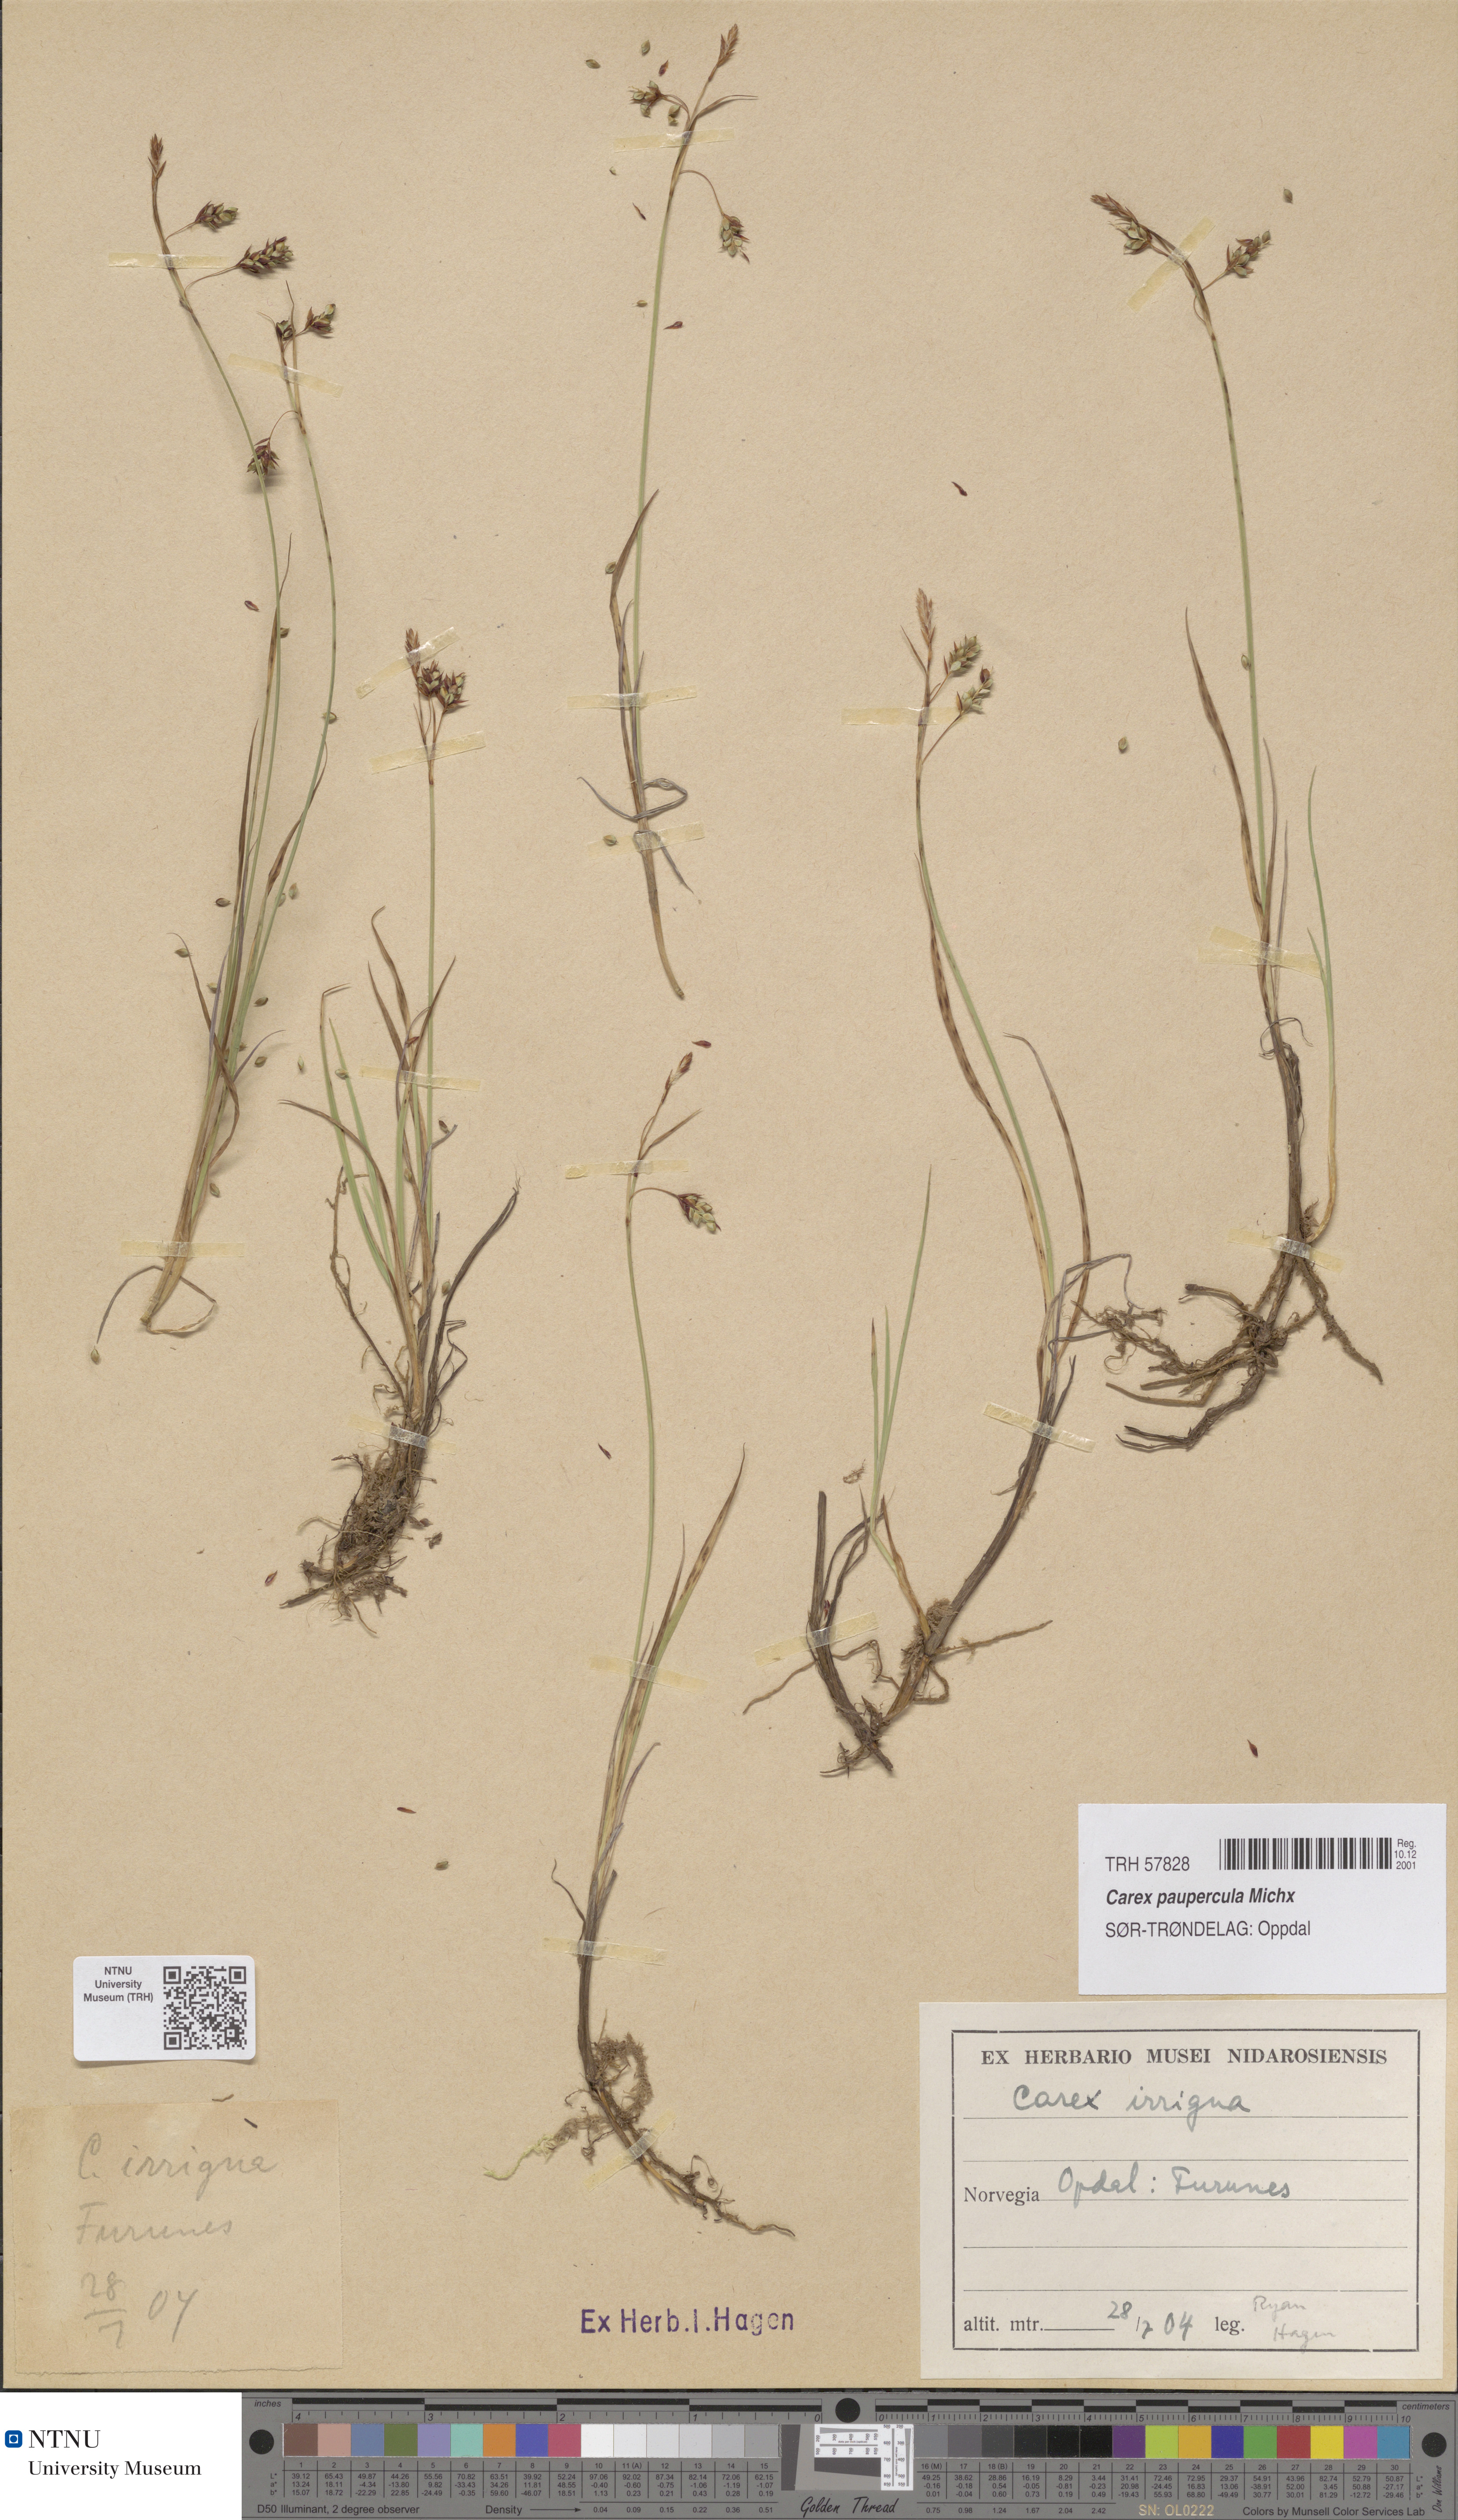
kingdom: Plantae
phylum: Tracheophyta
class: Liliopsida
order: Poales
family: Cyperaceae
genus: Carex
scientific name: Carex magellanica
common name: Bog sedge
